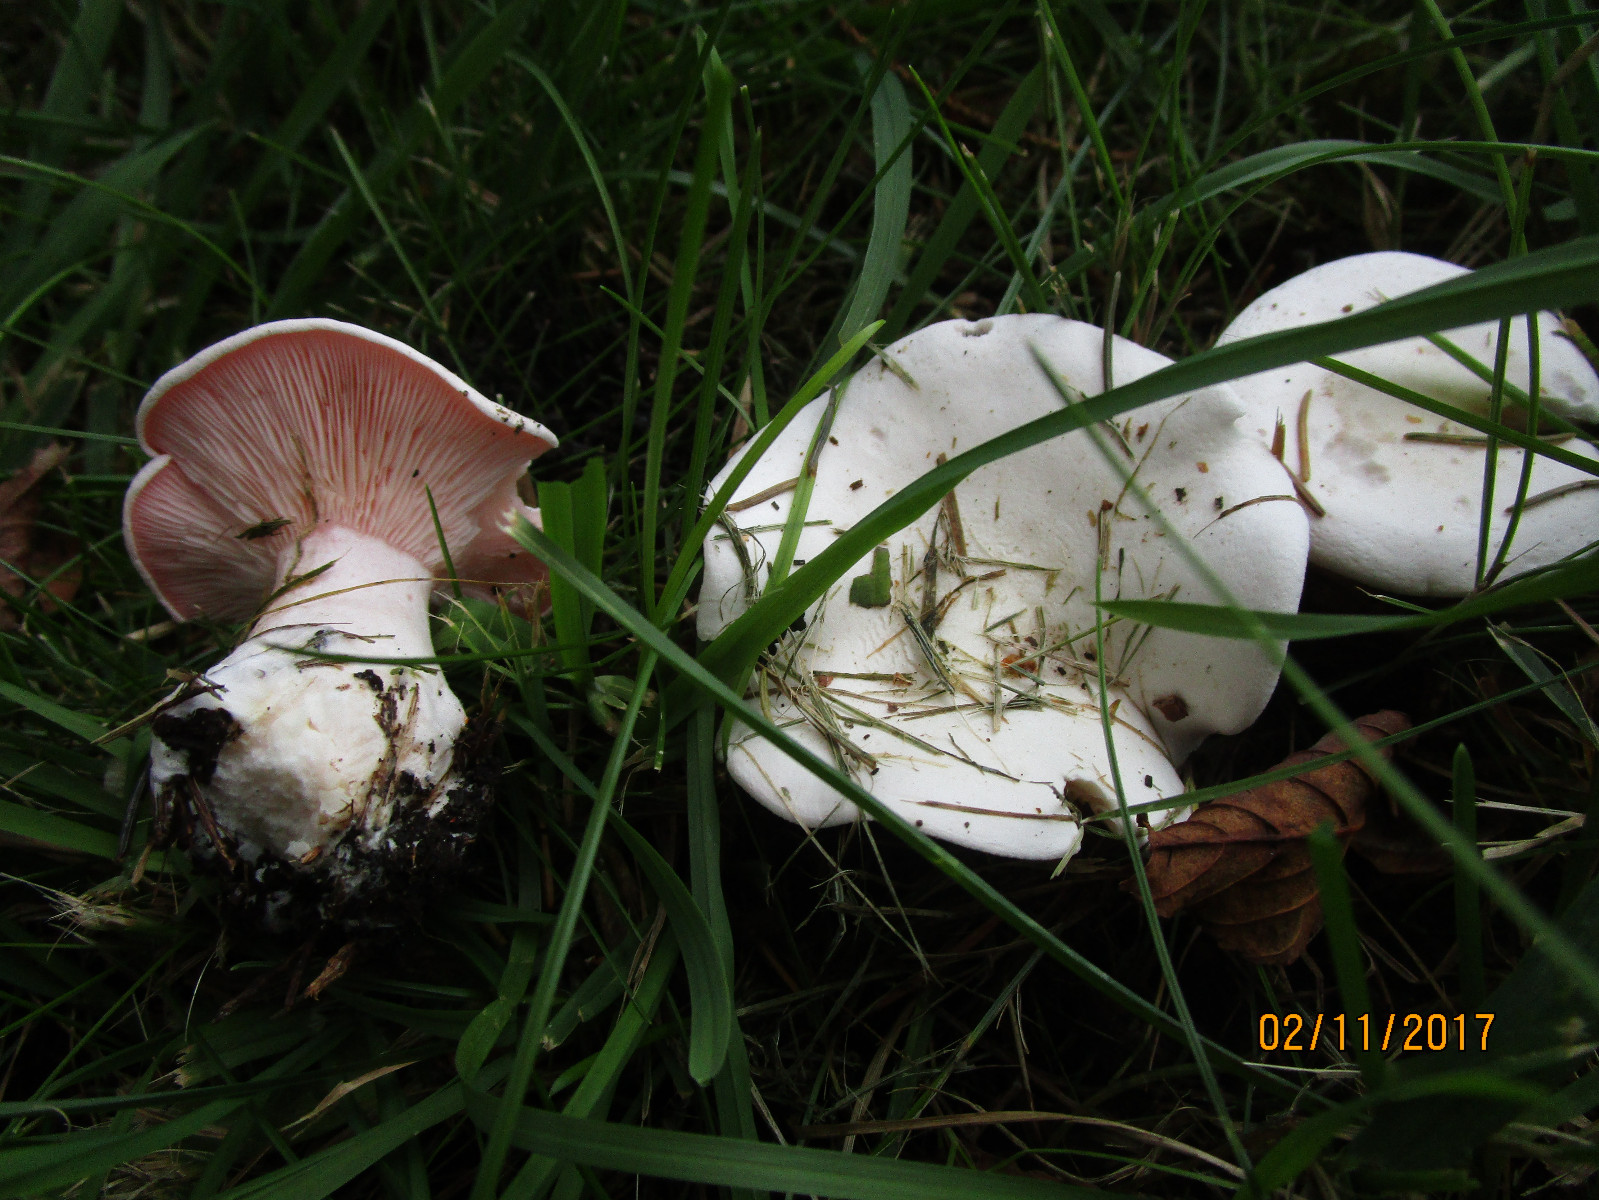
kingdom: Fungi
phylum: Basidiomycota
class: Agaricomycetes
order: Agaricales
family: Tricholomataceae
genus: Pseudoclitopilus
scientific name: Pseudoclitopilus rhodoleucus
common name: rosabladet tragtridderhat
